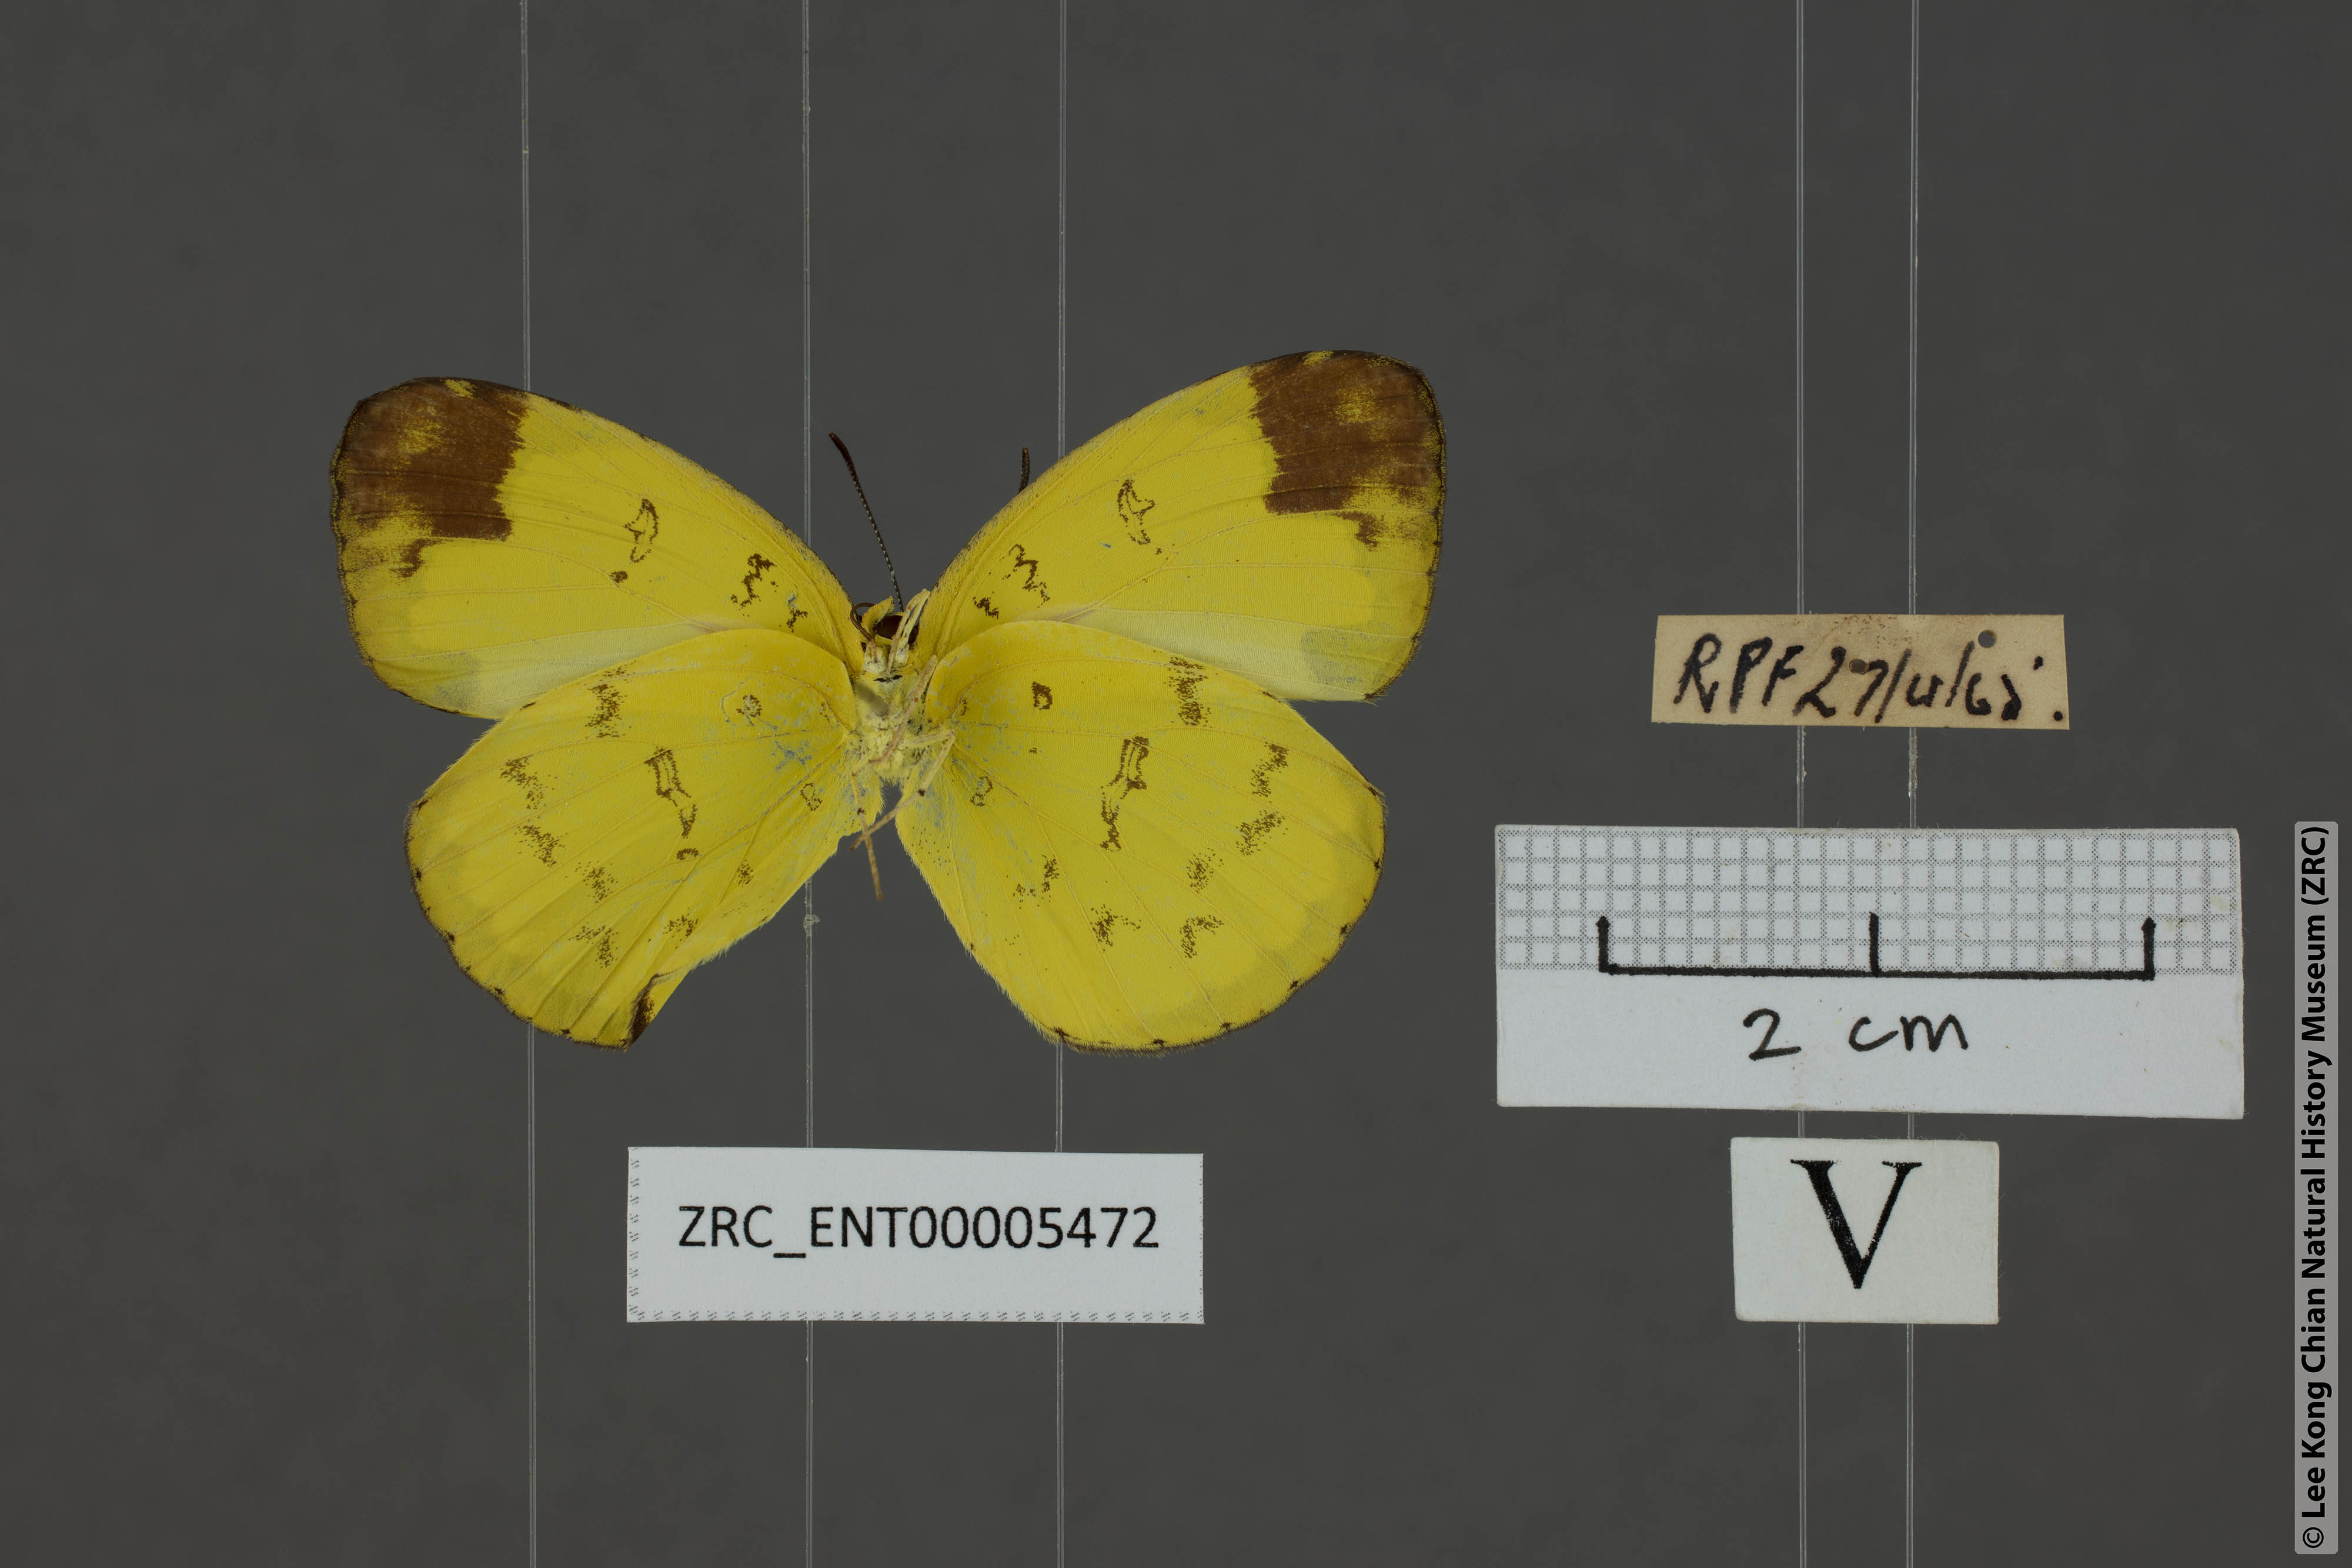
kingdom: Animalia
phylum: Arthropoda
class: Insecta
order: Lepidoptera
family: Pieridae
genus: Eurema
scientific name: Eurema sari
